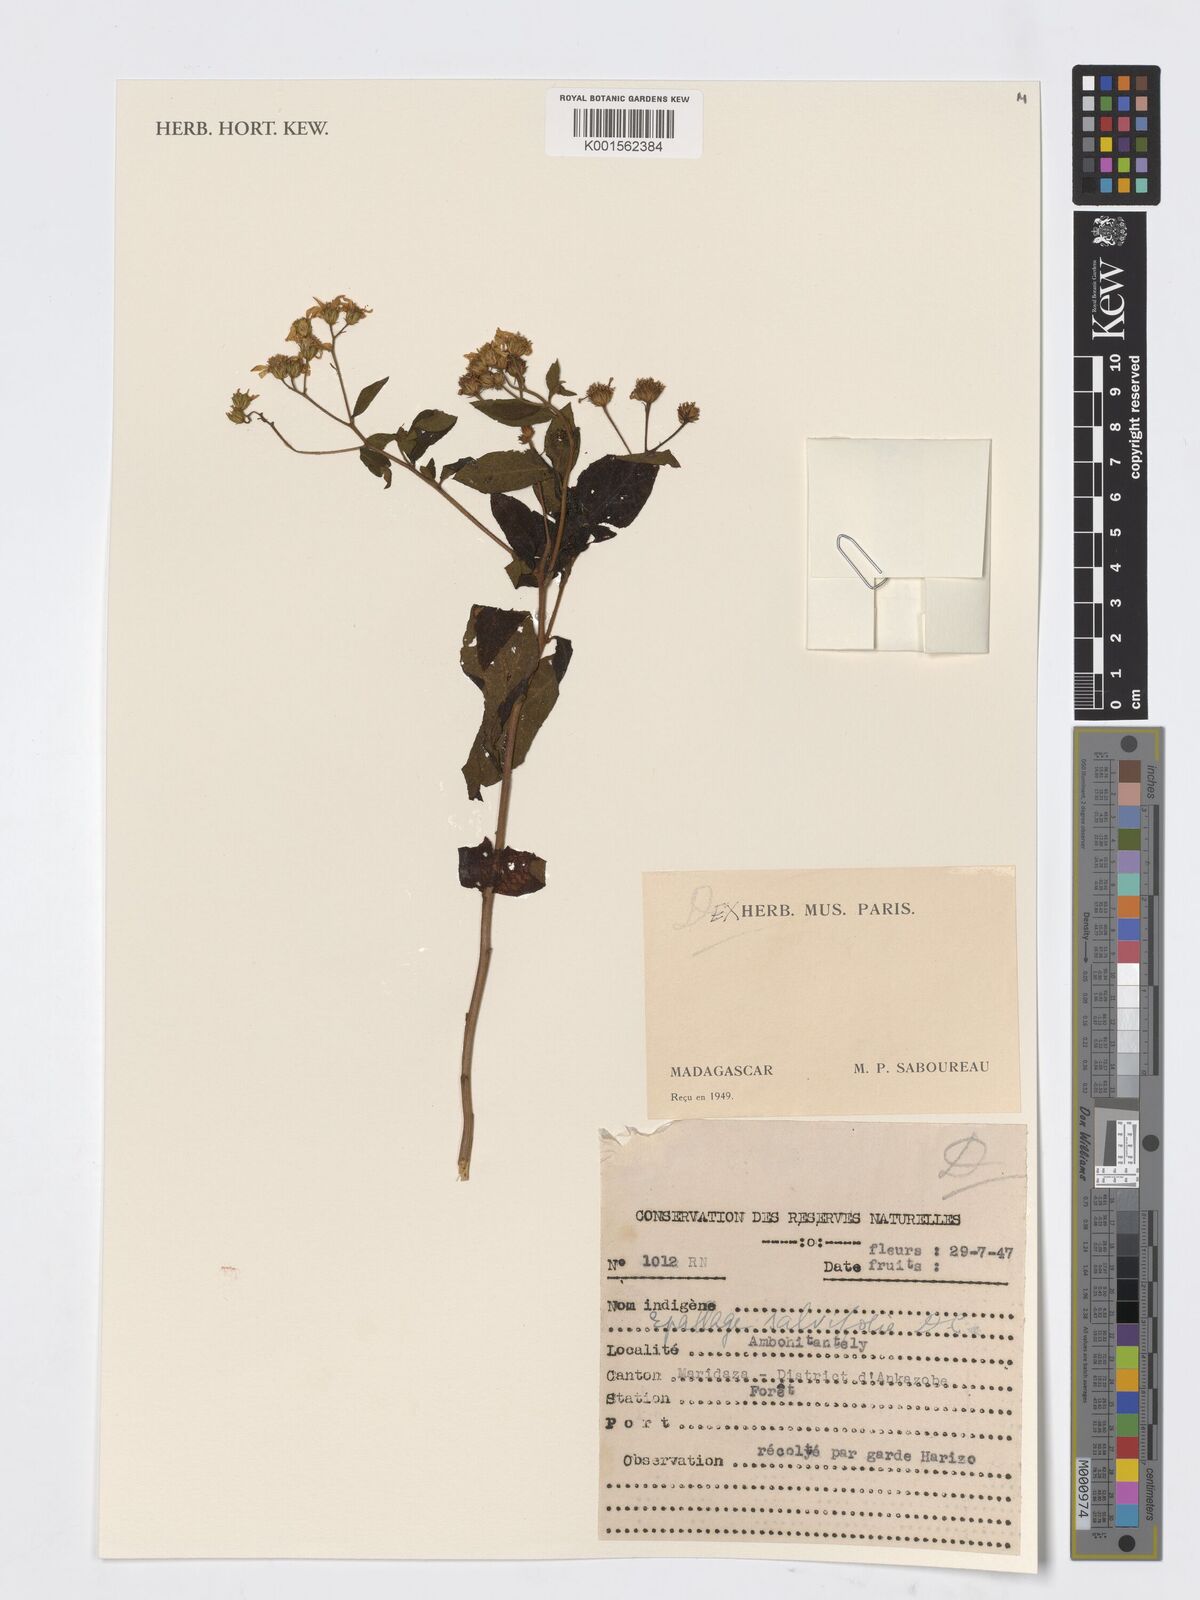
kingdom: Plantae
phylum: Tracheophyta
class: Magnoliopsida
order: Asterales
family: Asteraceae
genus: Vernonia
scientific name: Vernonia
